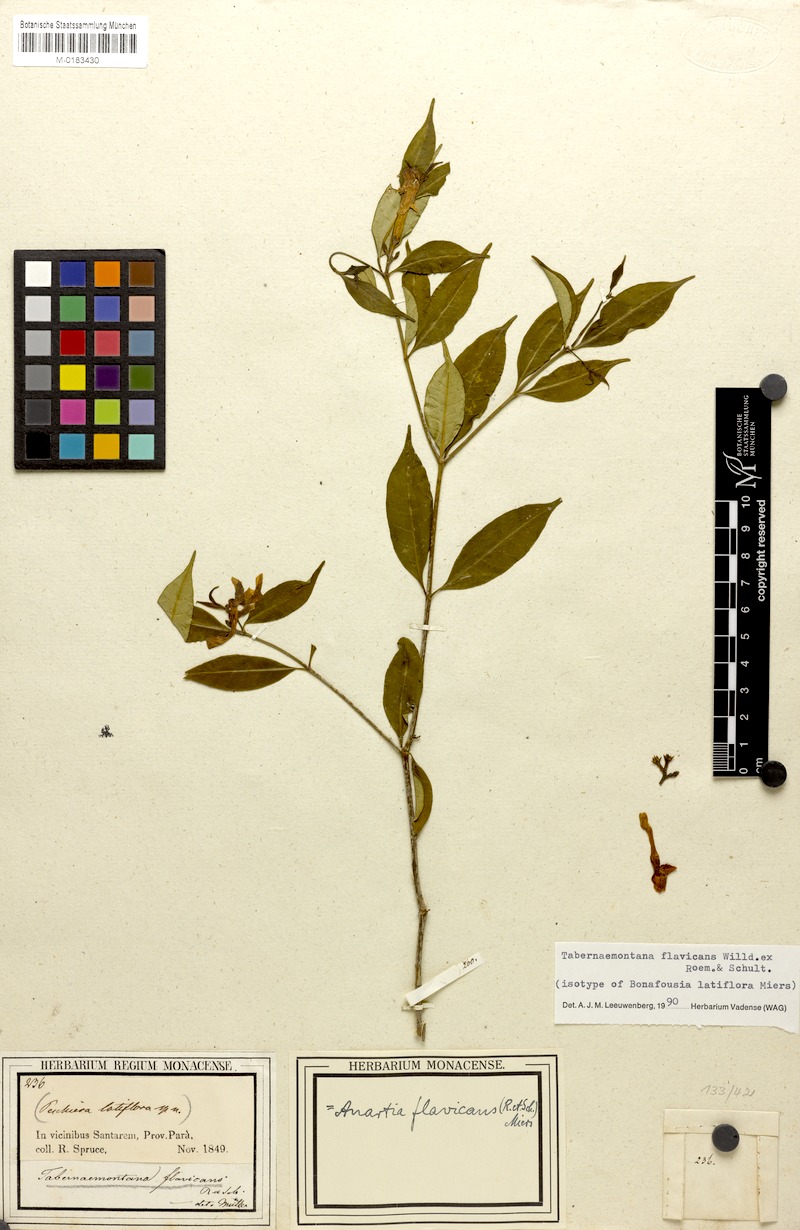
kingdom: Plantae
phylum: Tracheophyta
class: Magnoliopsida
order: Gentianales
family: Apocynaceae
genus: Tabernaemontana
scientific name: Tabernaemontana flavicans
